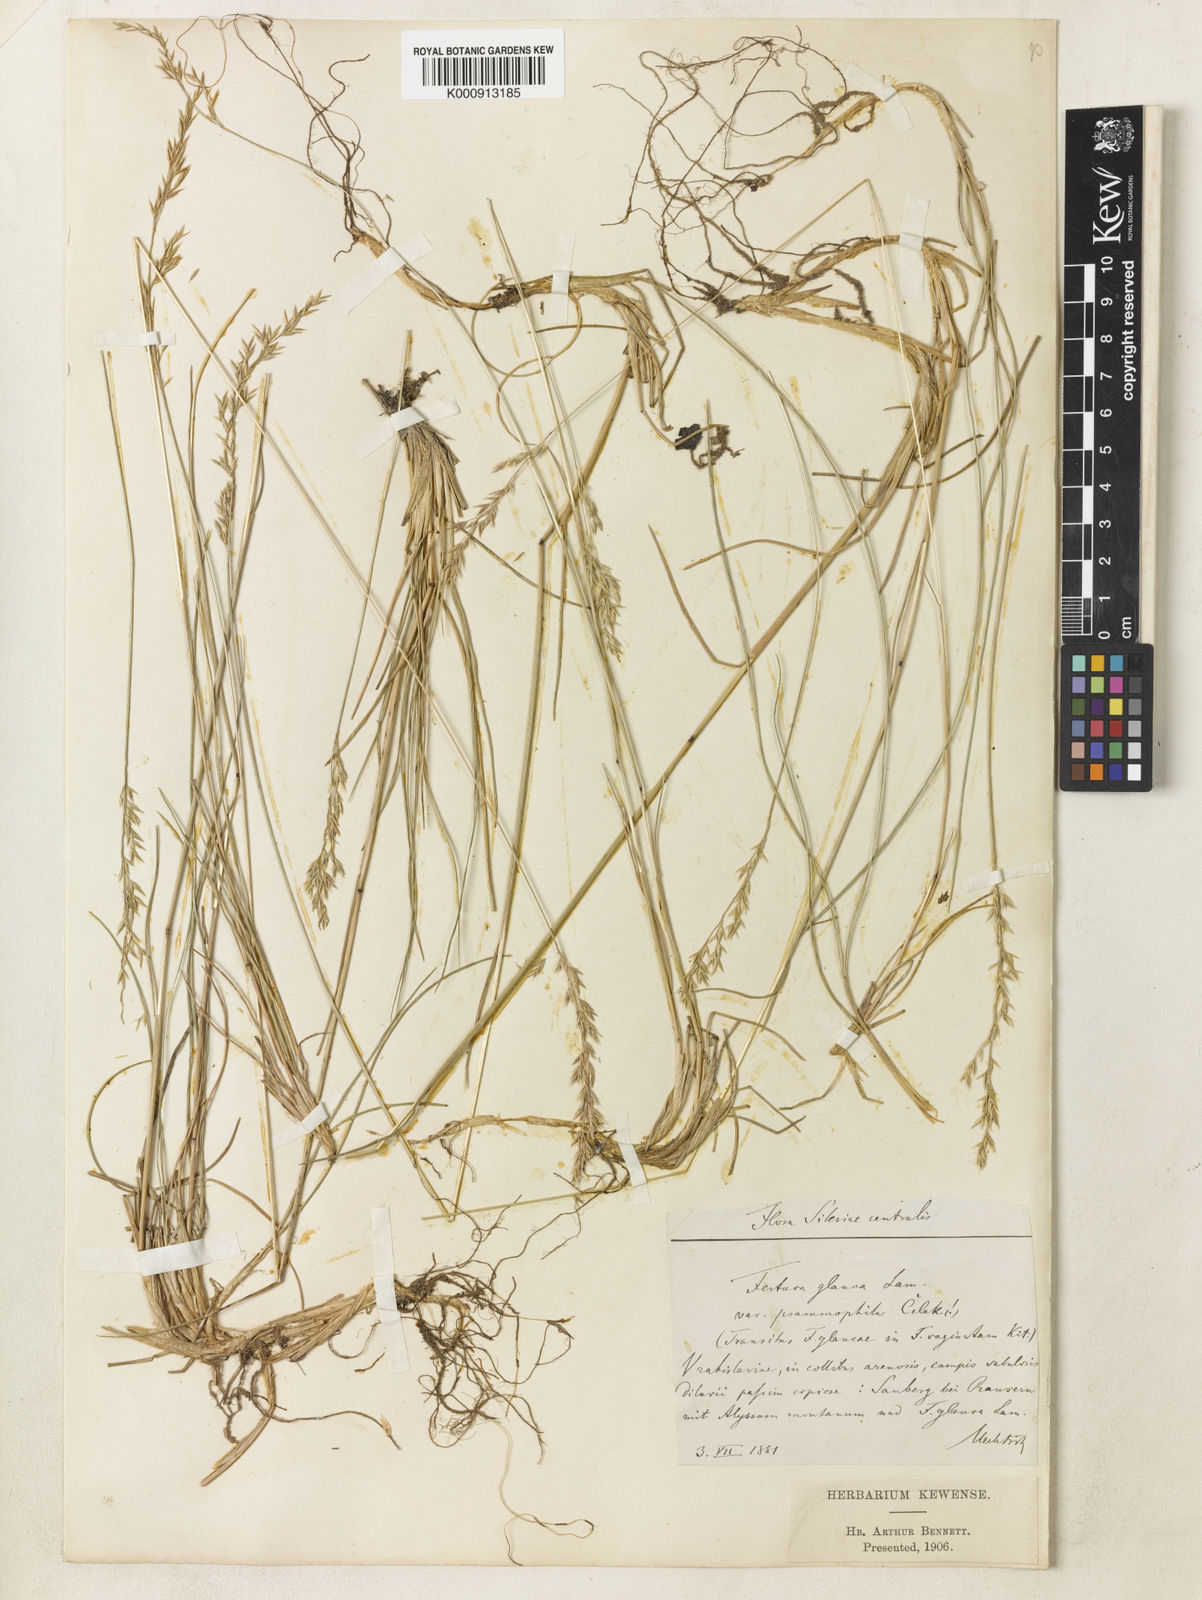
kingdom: Plantae
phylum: Tracheophyta
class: Liliopsida
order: Poales
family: Poaceae
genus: Festuca
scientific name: Festuca psammophila
